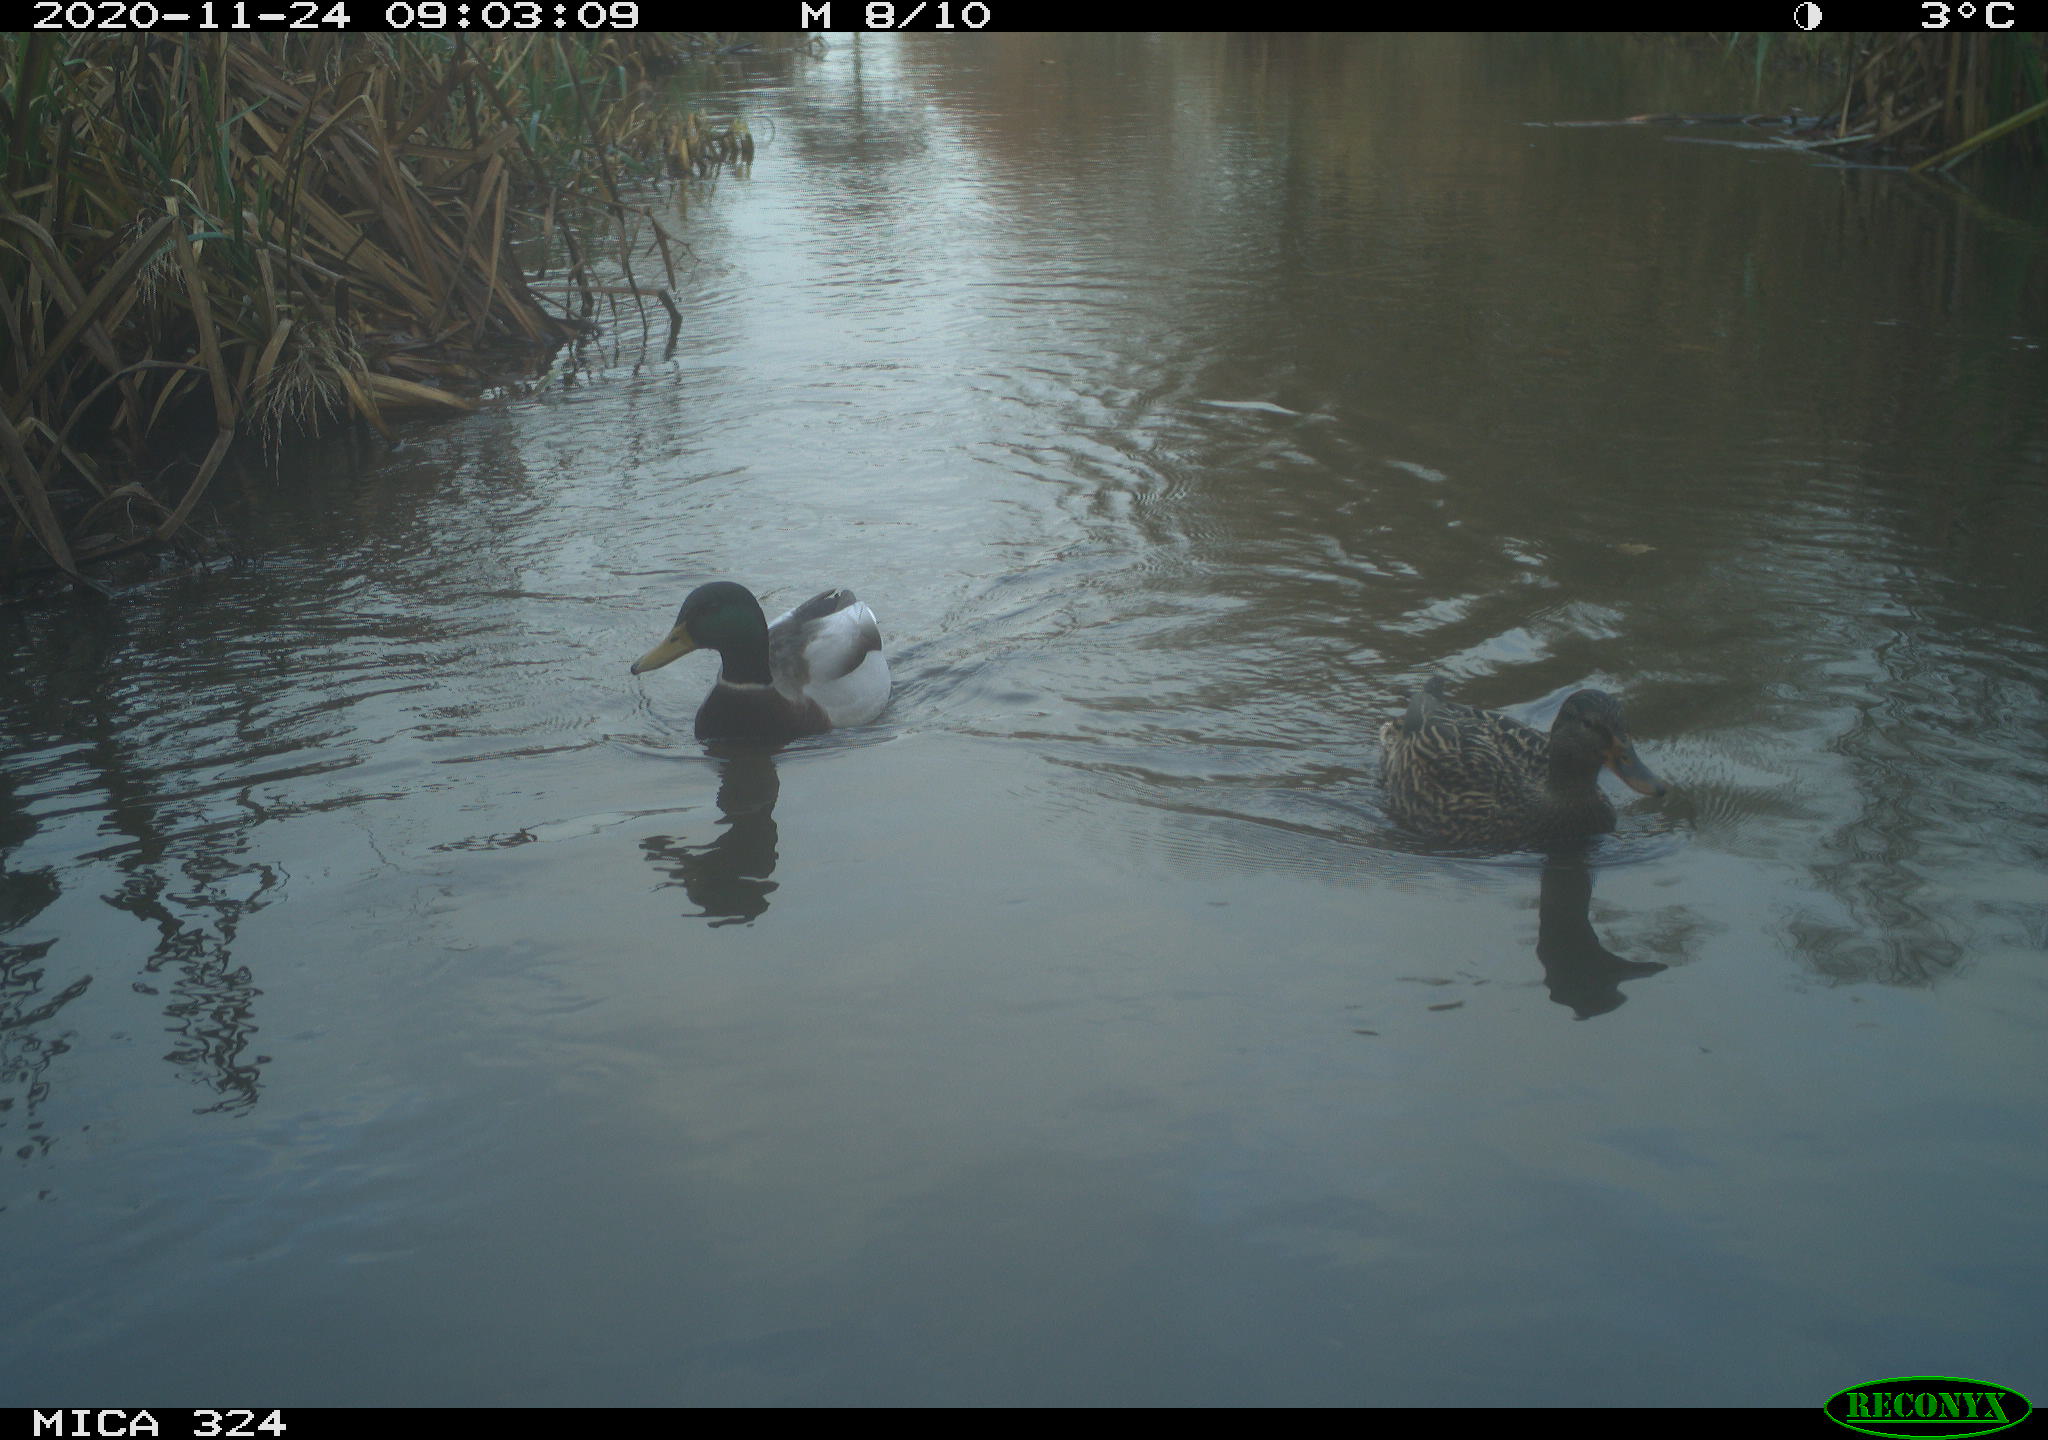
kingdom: Animalia
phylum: Chordata
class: Aves
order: Anseriformes
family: Anatidae
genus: Anas
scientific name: Anas platyrhynchos
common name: Mallard
